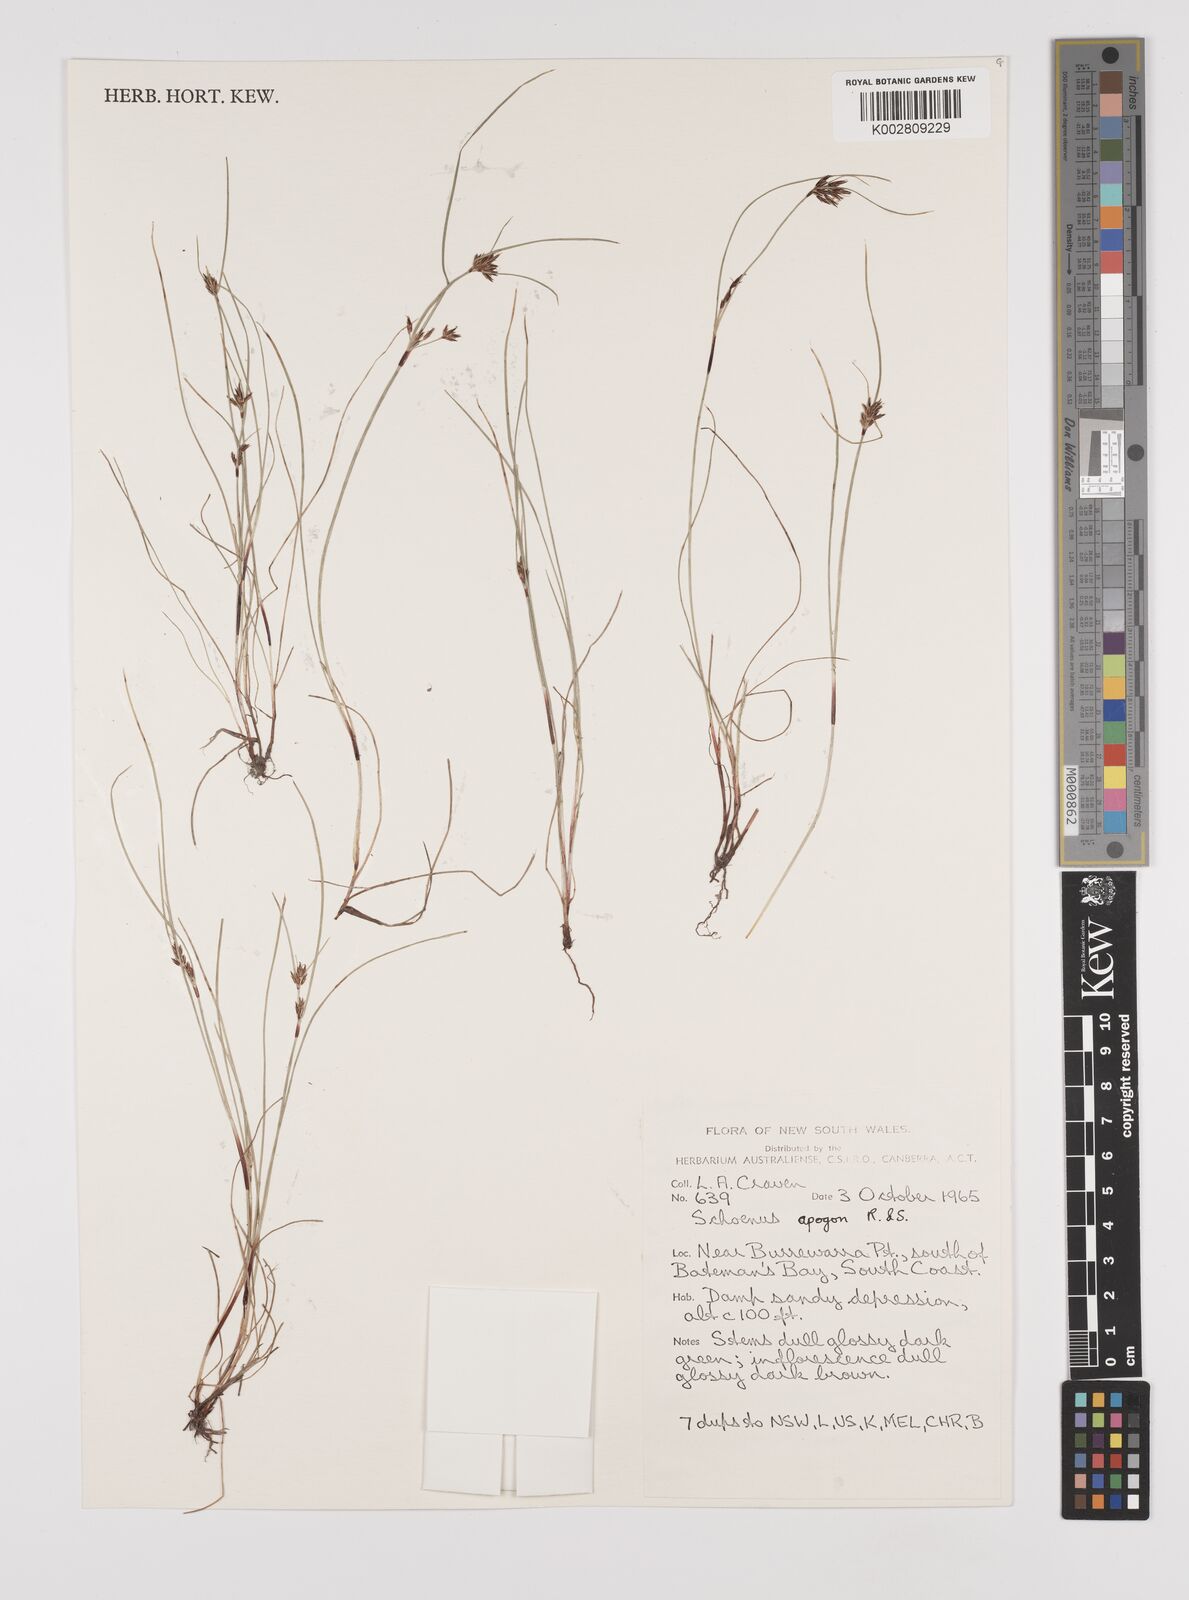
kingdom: Plantae
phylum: Tracheophyta
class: Liliopsida
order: Poales
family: Cyperaceae
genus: Schoenus
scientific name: Schoenus apogon
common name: Smooth bogrush
